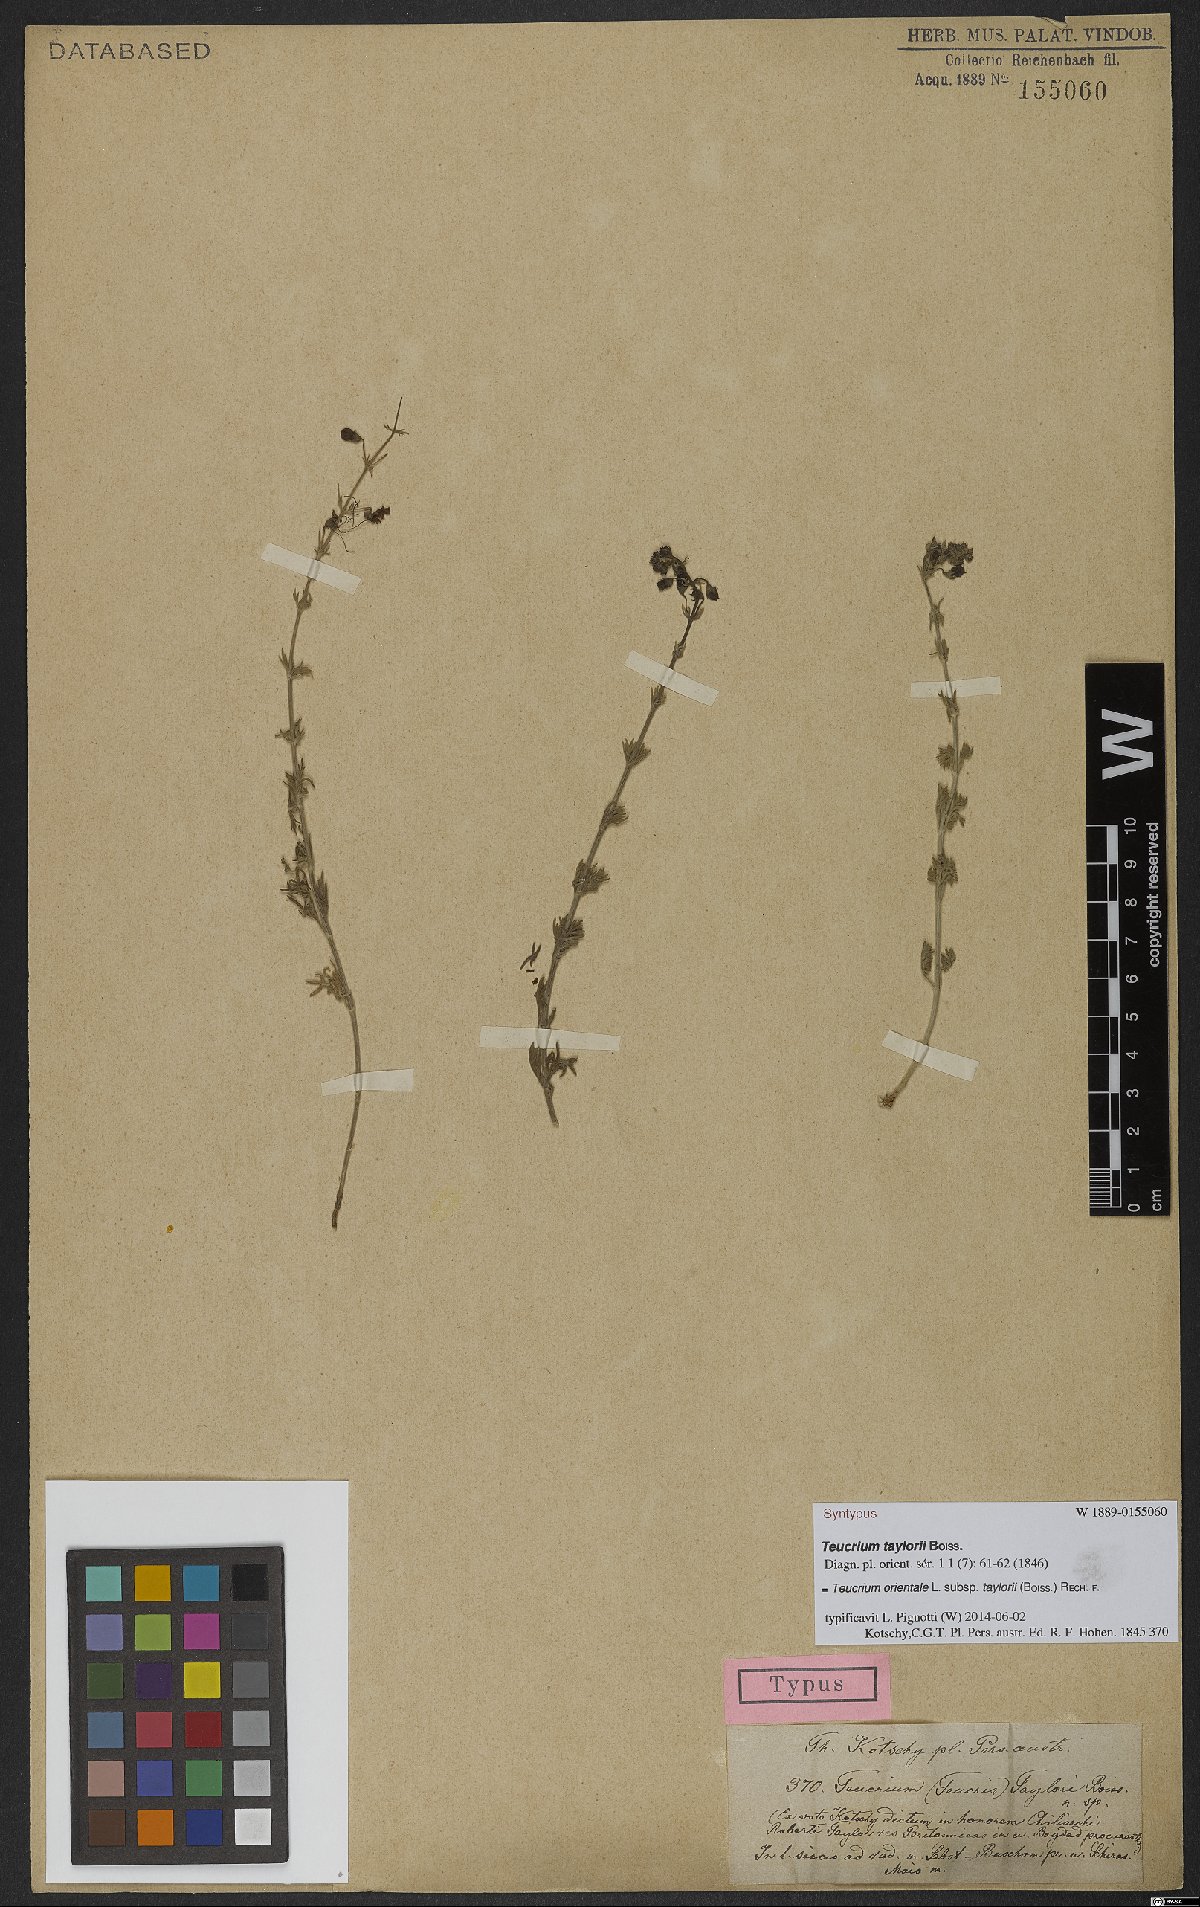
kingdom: Plantae
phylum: Tracheophyta
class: Magnoliopsida
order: Lamiales
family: Lamiaceae
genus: Teucrium
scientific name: Teucrium orientale
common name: Oriental germander
